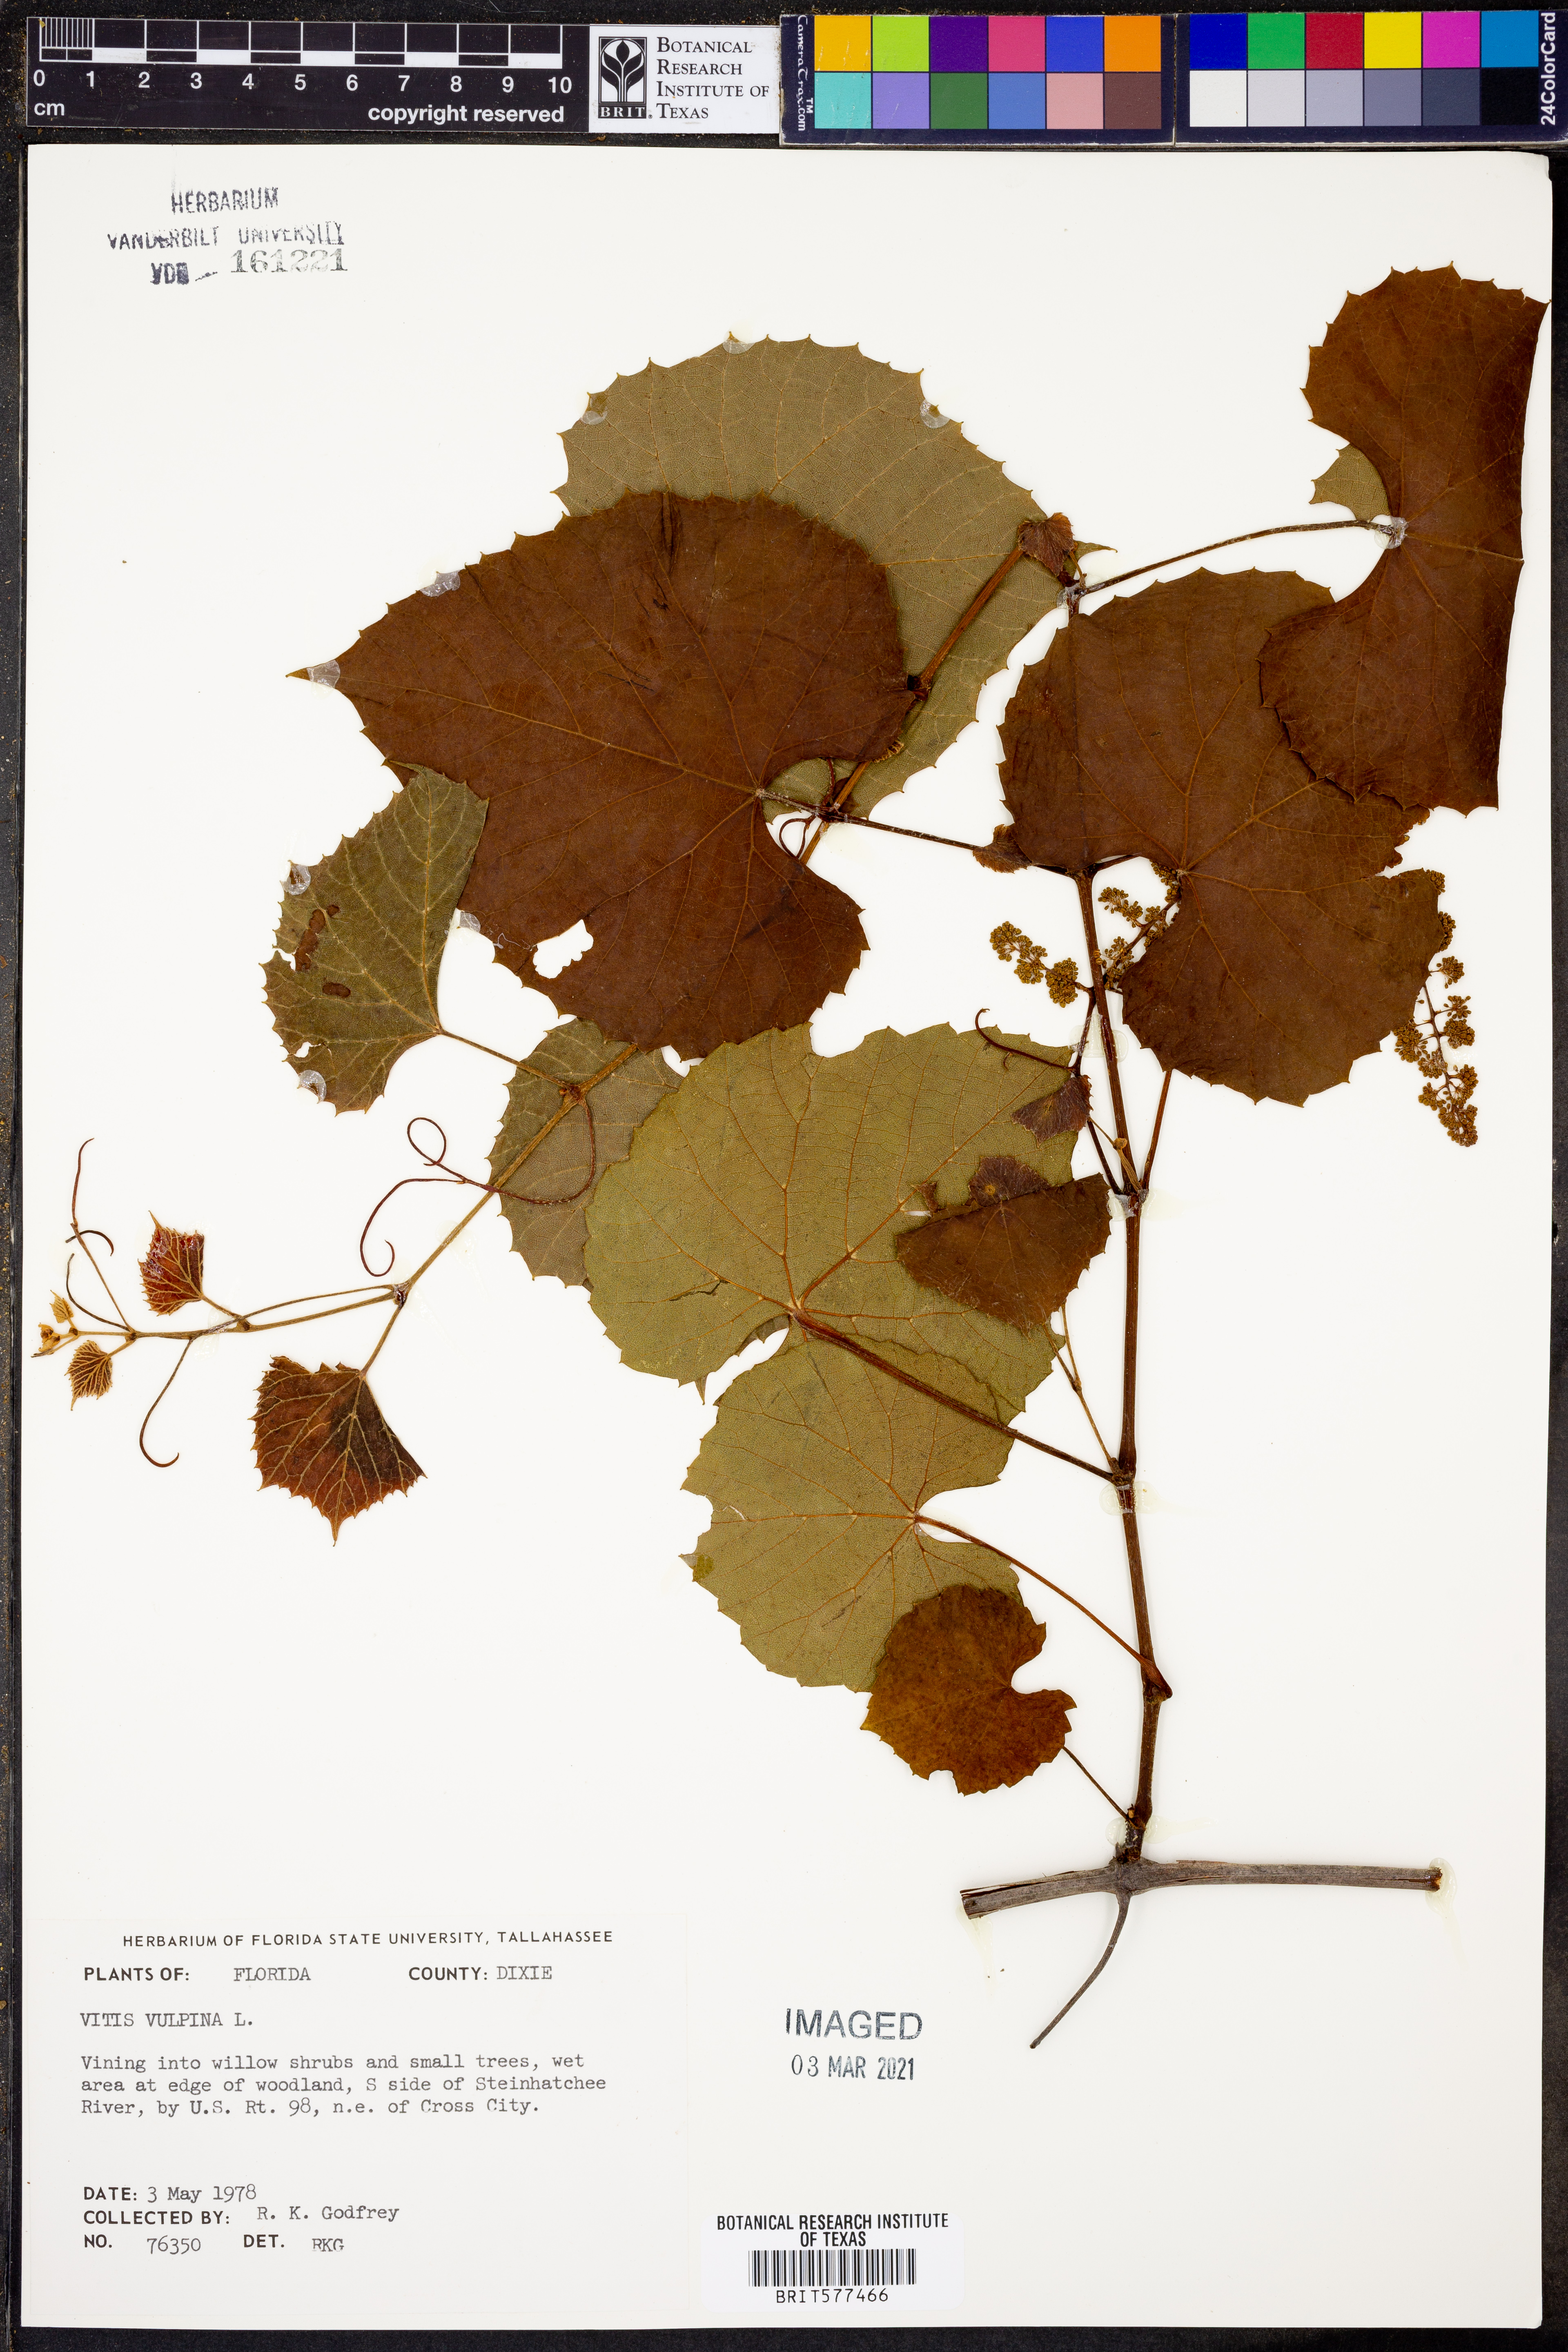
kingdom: Plantae
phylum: Tracheophyta
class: Magnoliopsida
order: Vitales
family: Vitaceae
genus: Vitis
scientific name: Vitis vulpina
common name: Frost grape
